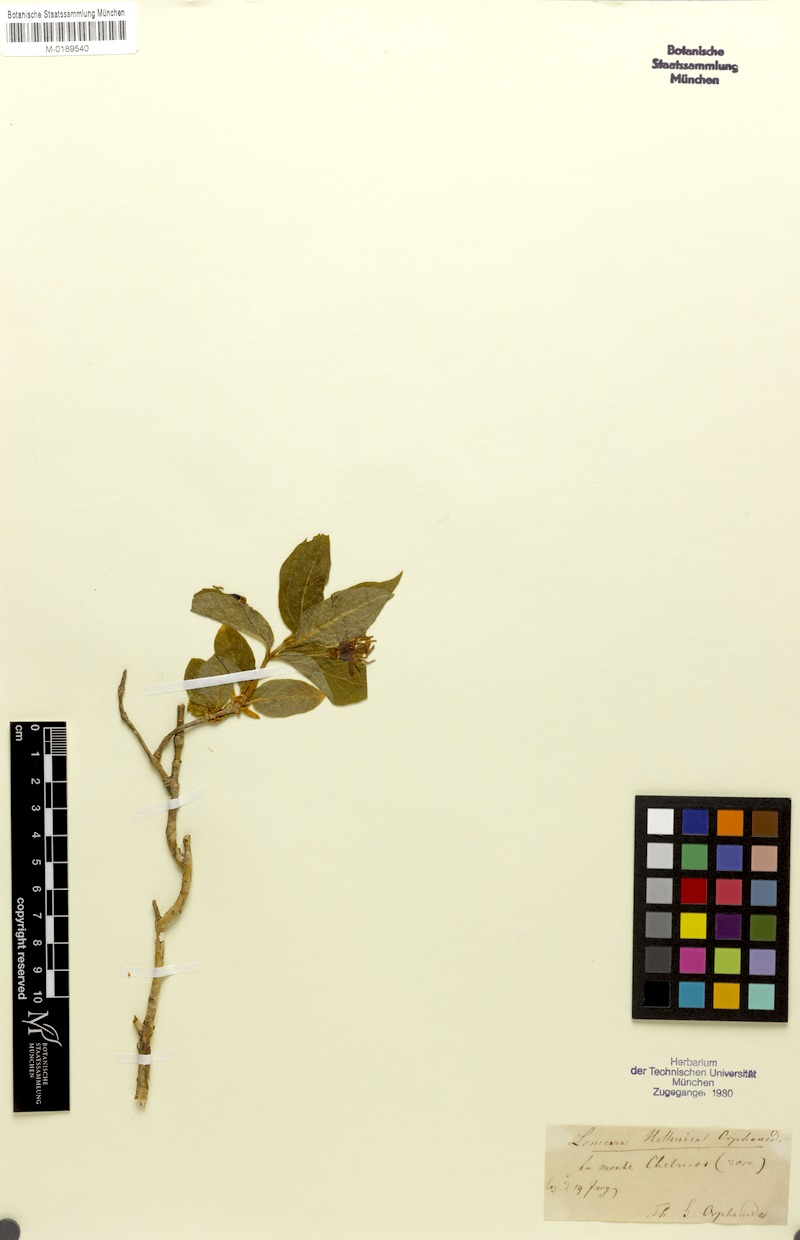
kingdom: Plantae
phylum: Tracheophyta
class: Magnoliopsida
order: Dipsacales
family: Caprifoliaceae
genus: Lonicera
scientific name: Lonicera alpigena
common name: Alpine honeysuckle
